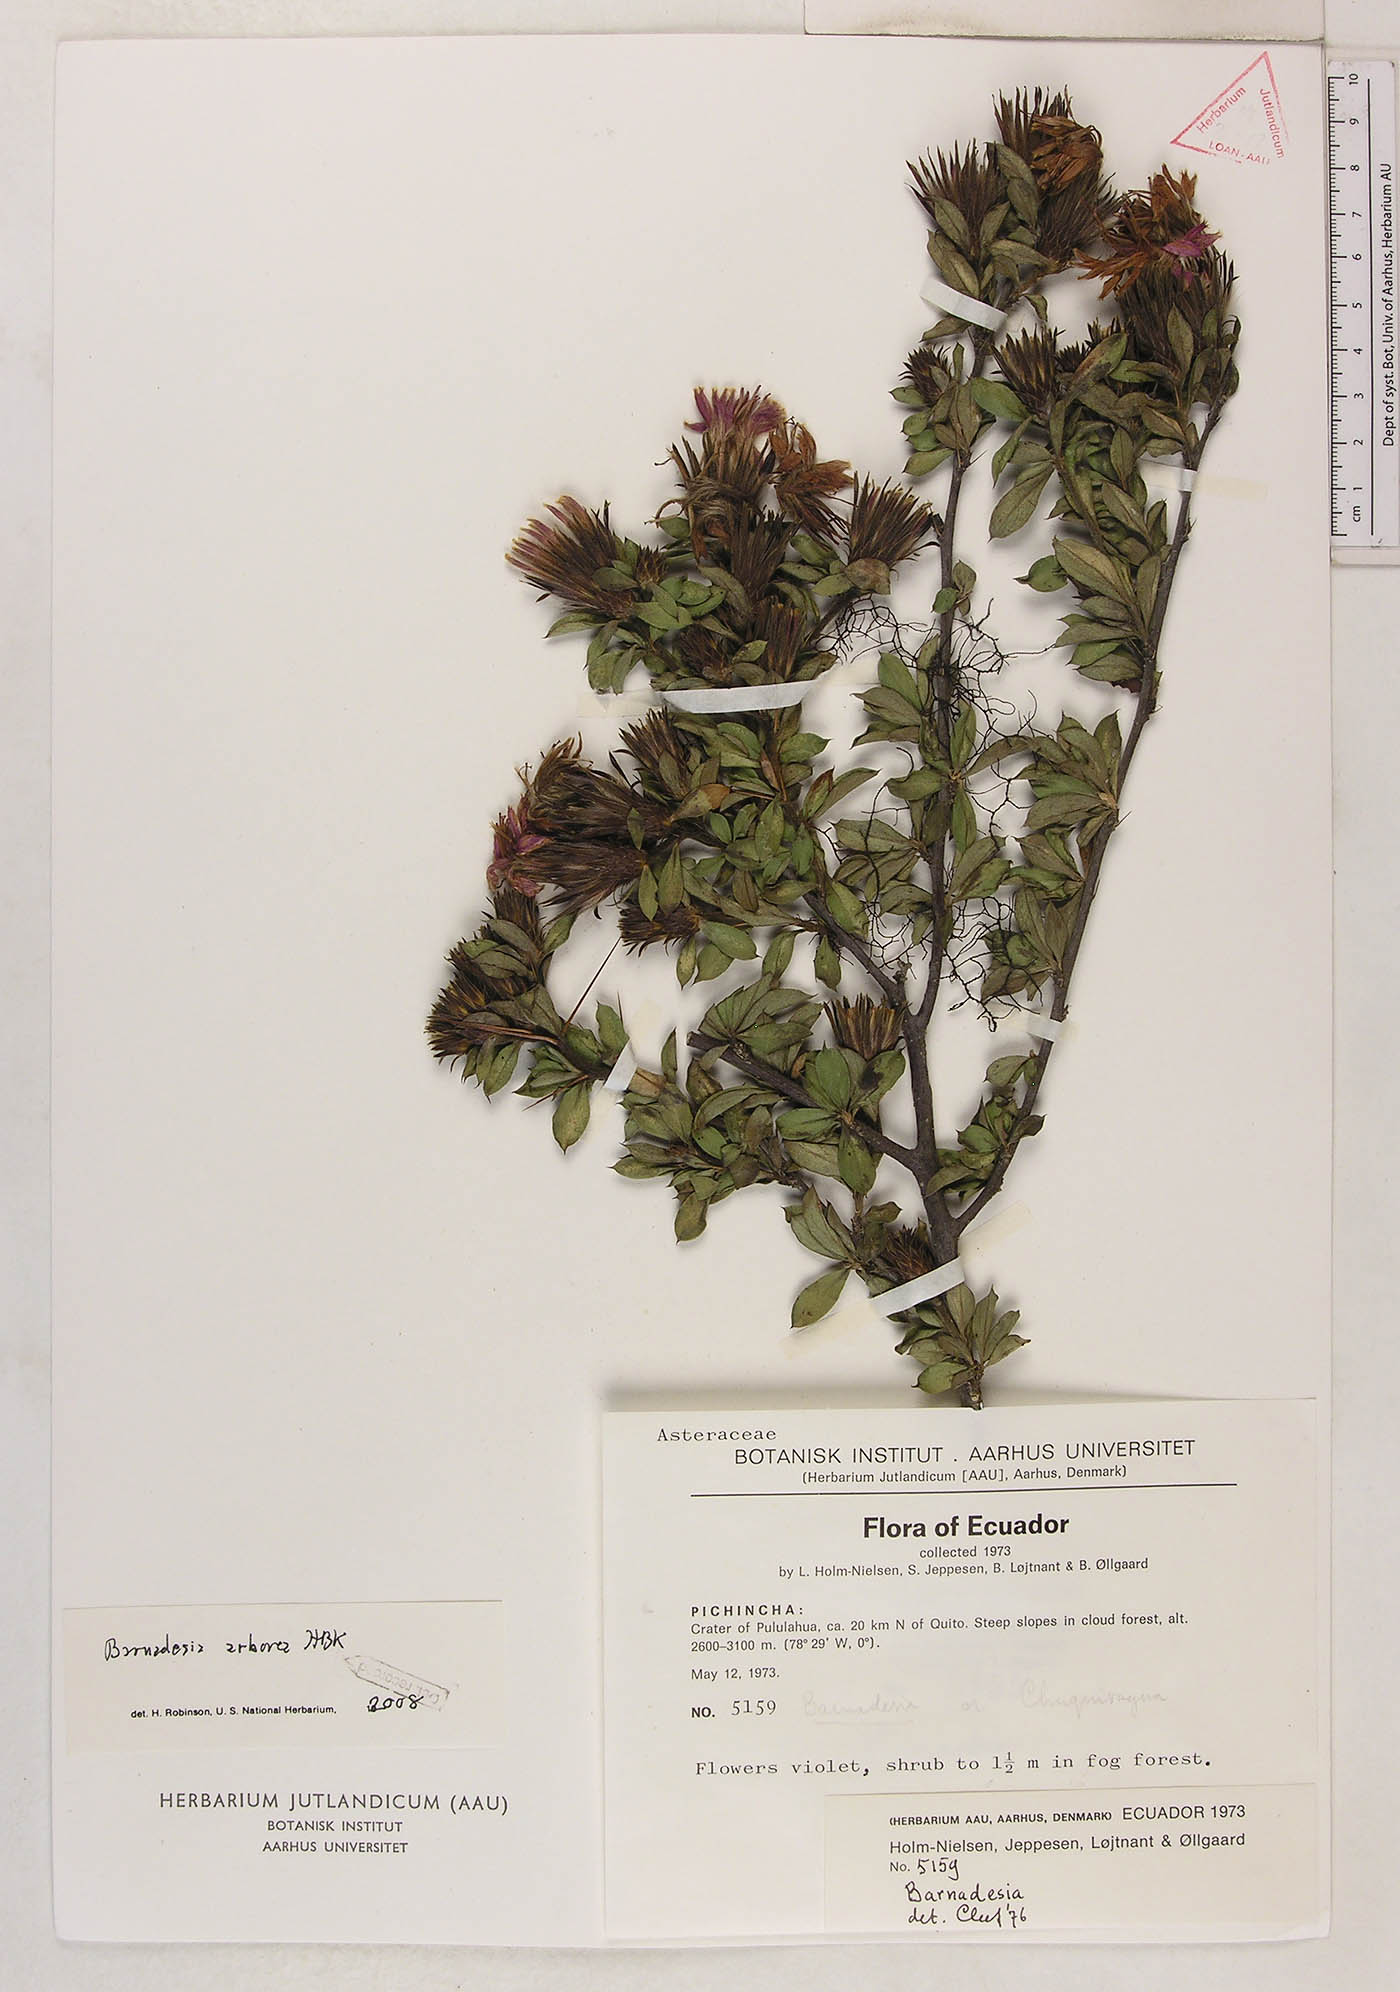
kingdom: Plantae
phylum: Tracheophyta
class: Magnoliopsida
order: Asterales
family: Asteraceae
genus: Barnadesia
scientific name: Barnadesia arborea
